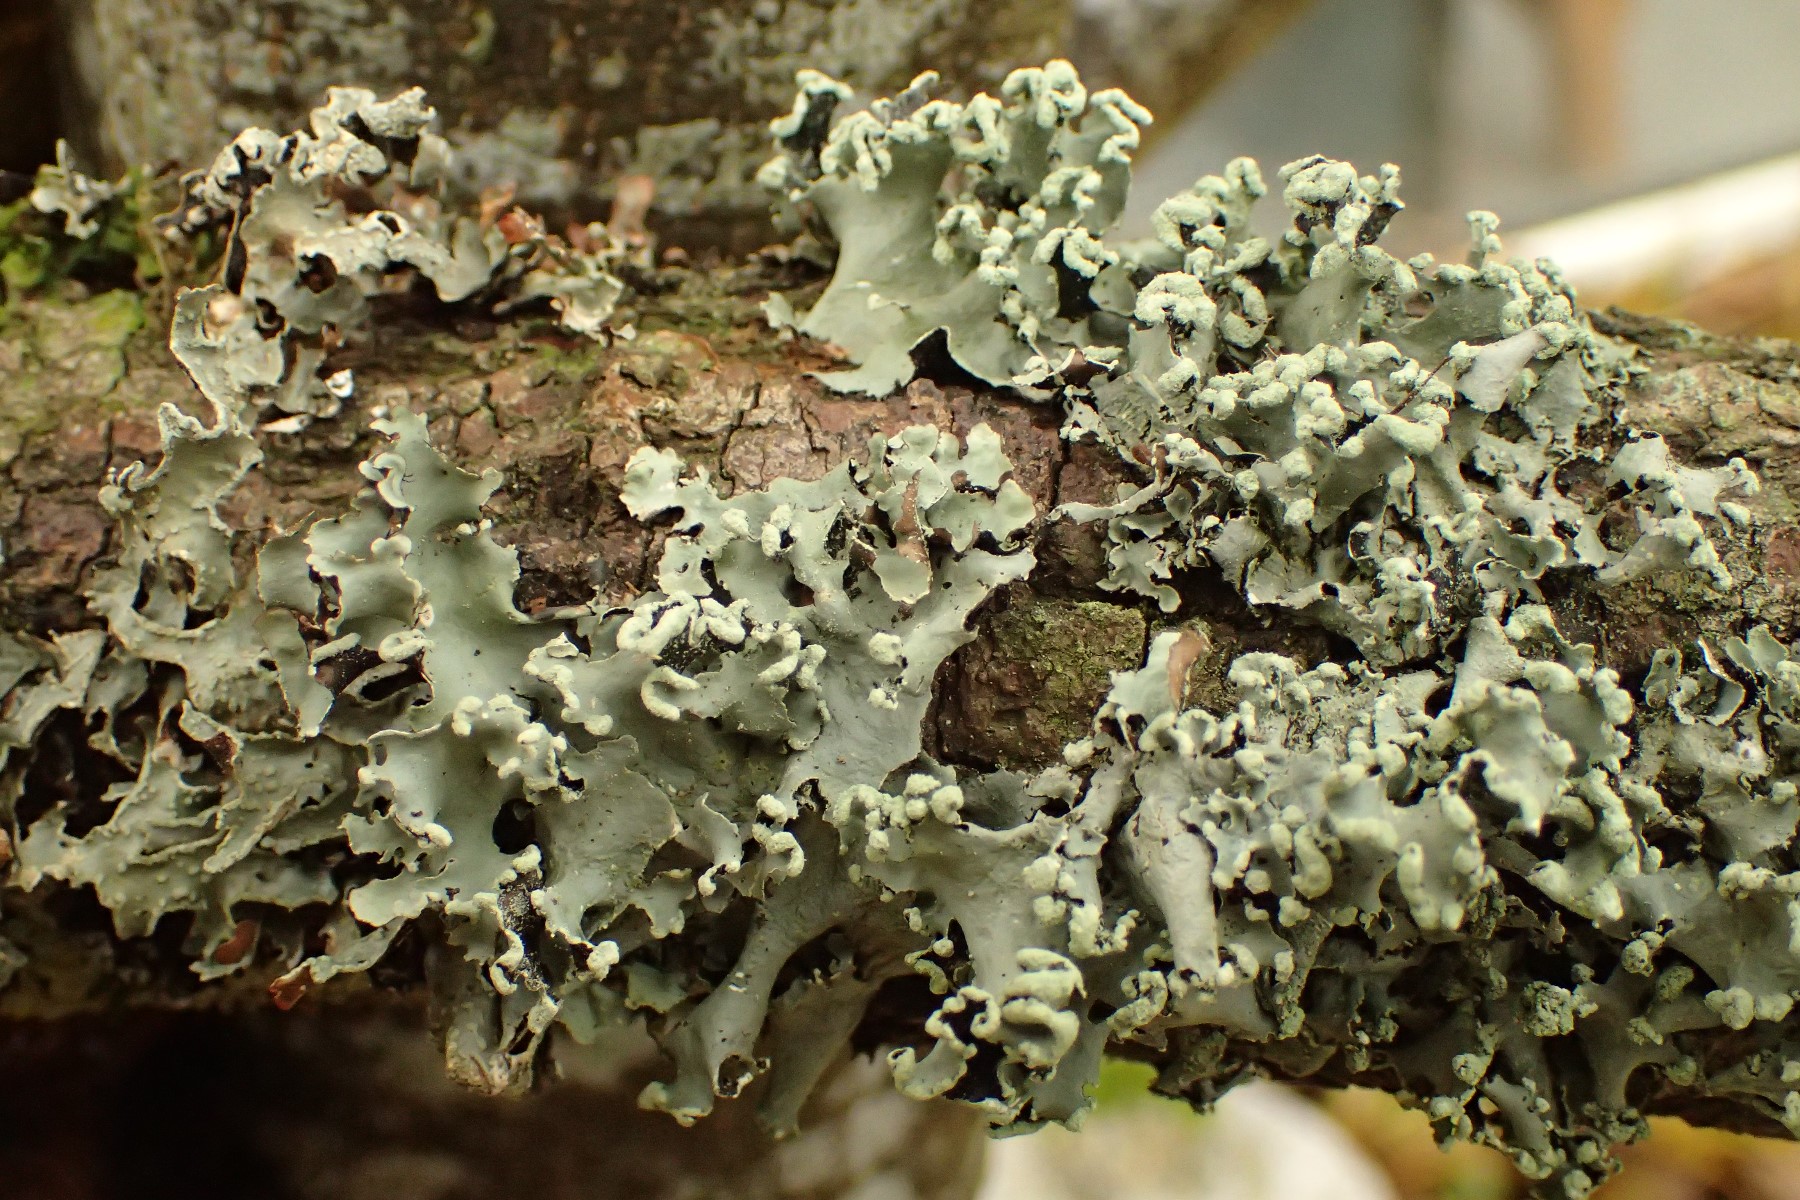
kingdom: Fungi
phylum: Ascomycota
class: Lecanoromycetes
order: Lecanorales
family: Parmeliaceae
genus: Parmotrema
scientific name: Parmotrema perlatum
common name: trådet skållav
